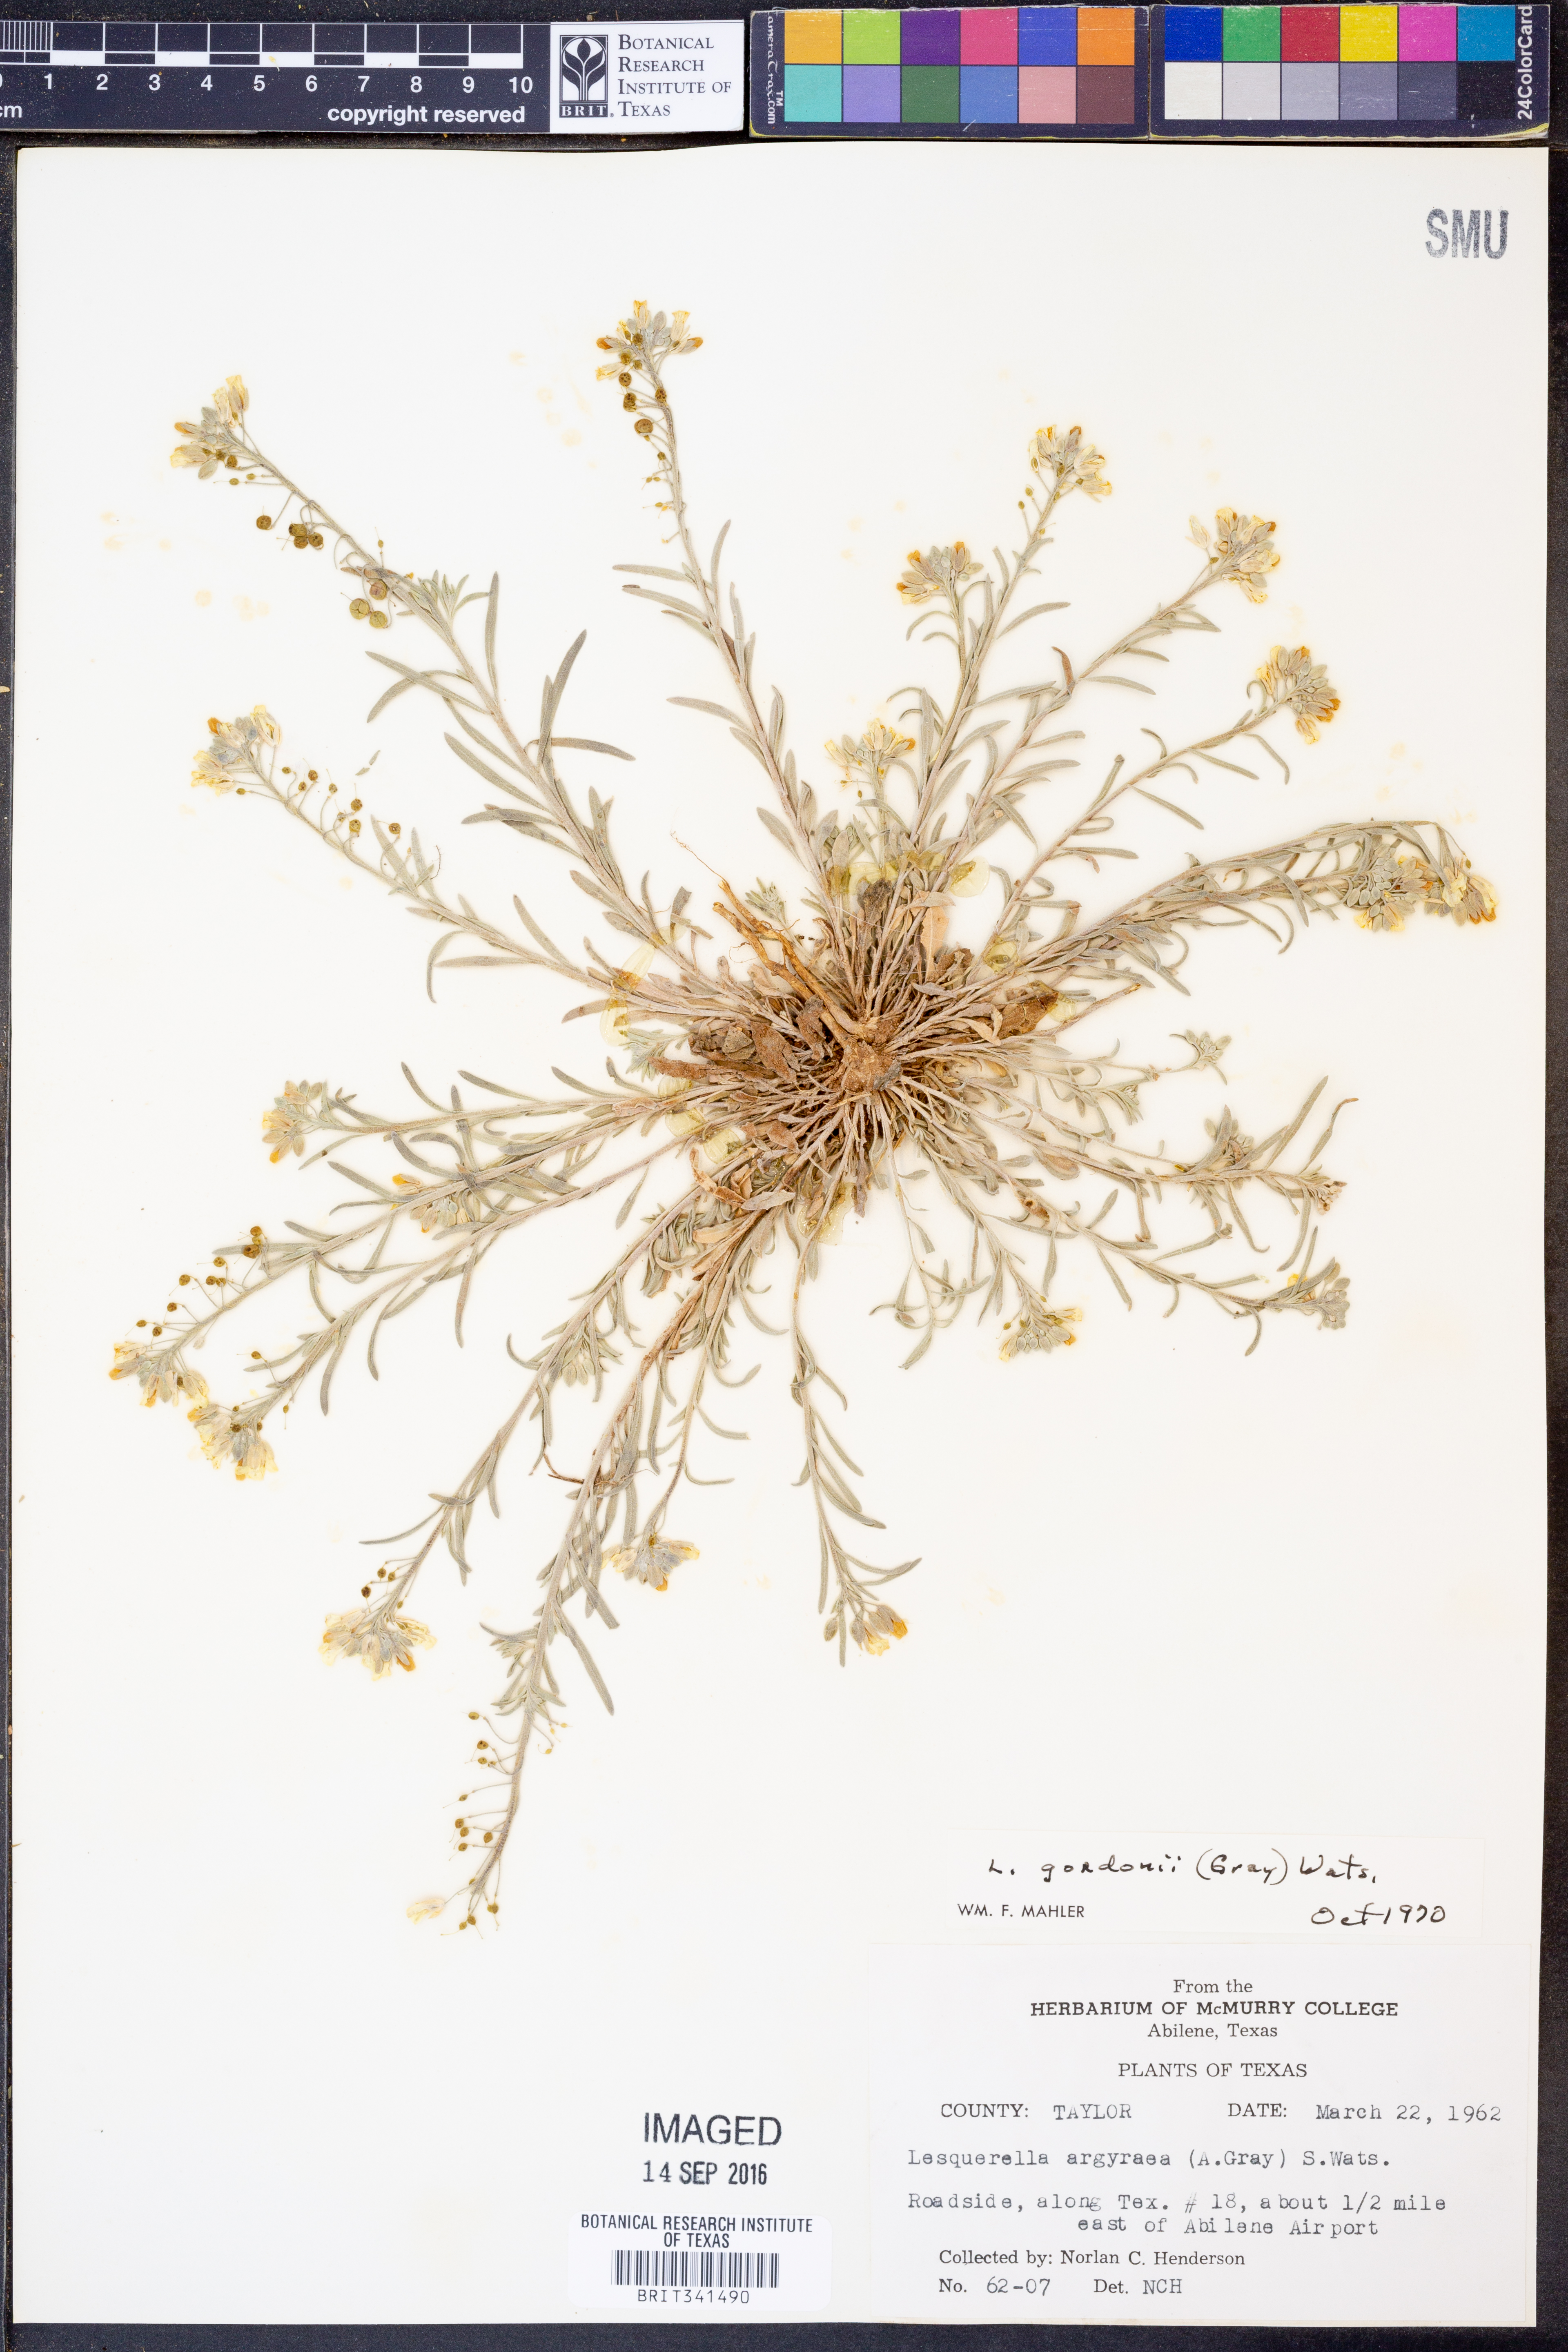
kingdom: Plantae
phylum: Tracheophyta
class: Magnoliopsida
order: Brassicales
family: Brassicaceae
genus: Physaria
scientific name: Physaria gordonii
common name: Gordon's bladderpod
